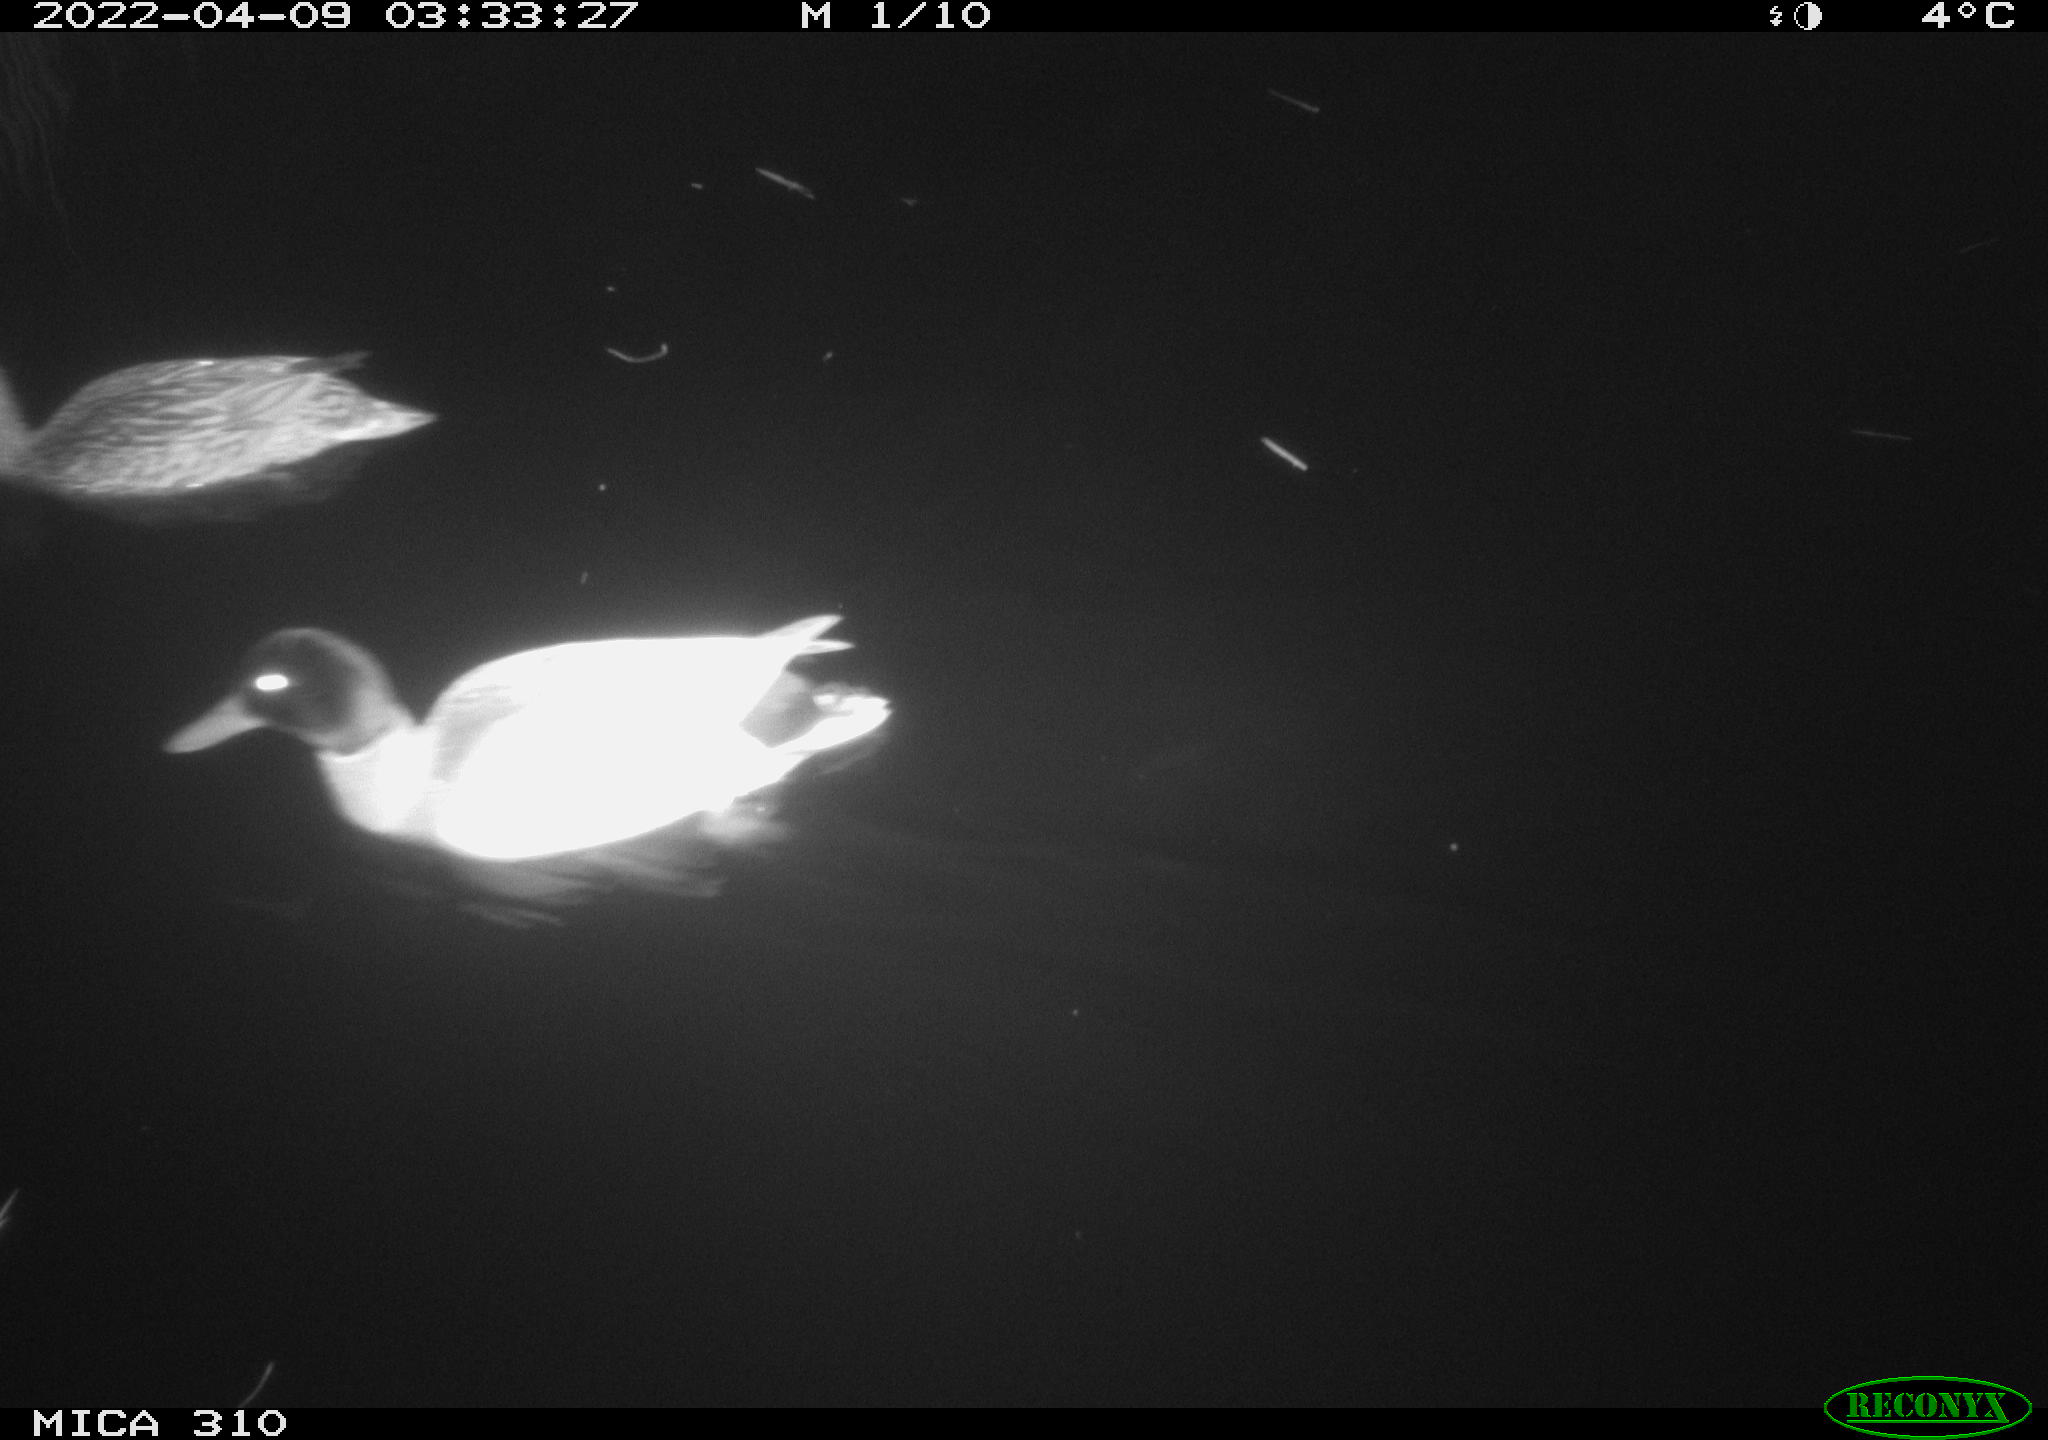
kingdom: Animalia
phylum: Chordata
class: Aves
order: Anseriformes
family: Anatidae
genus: Anas
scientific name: Anas platyrhynchos
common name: Mallard
